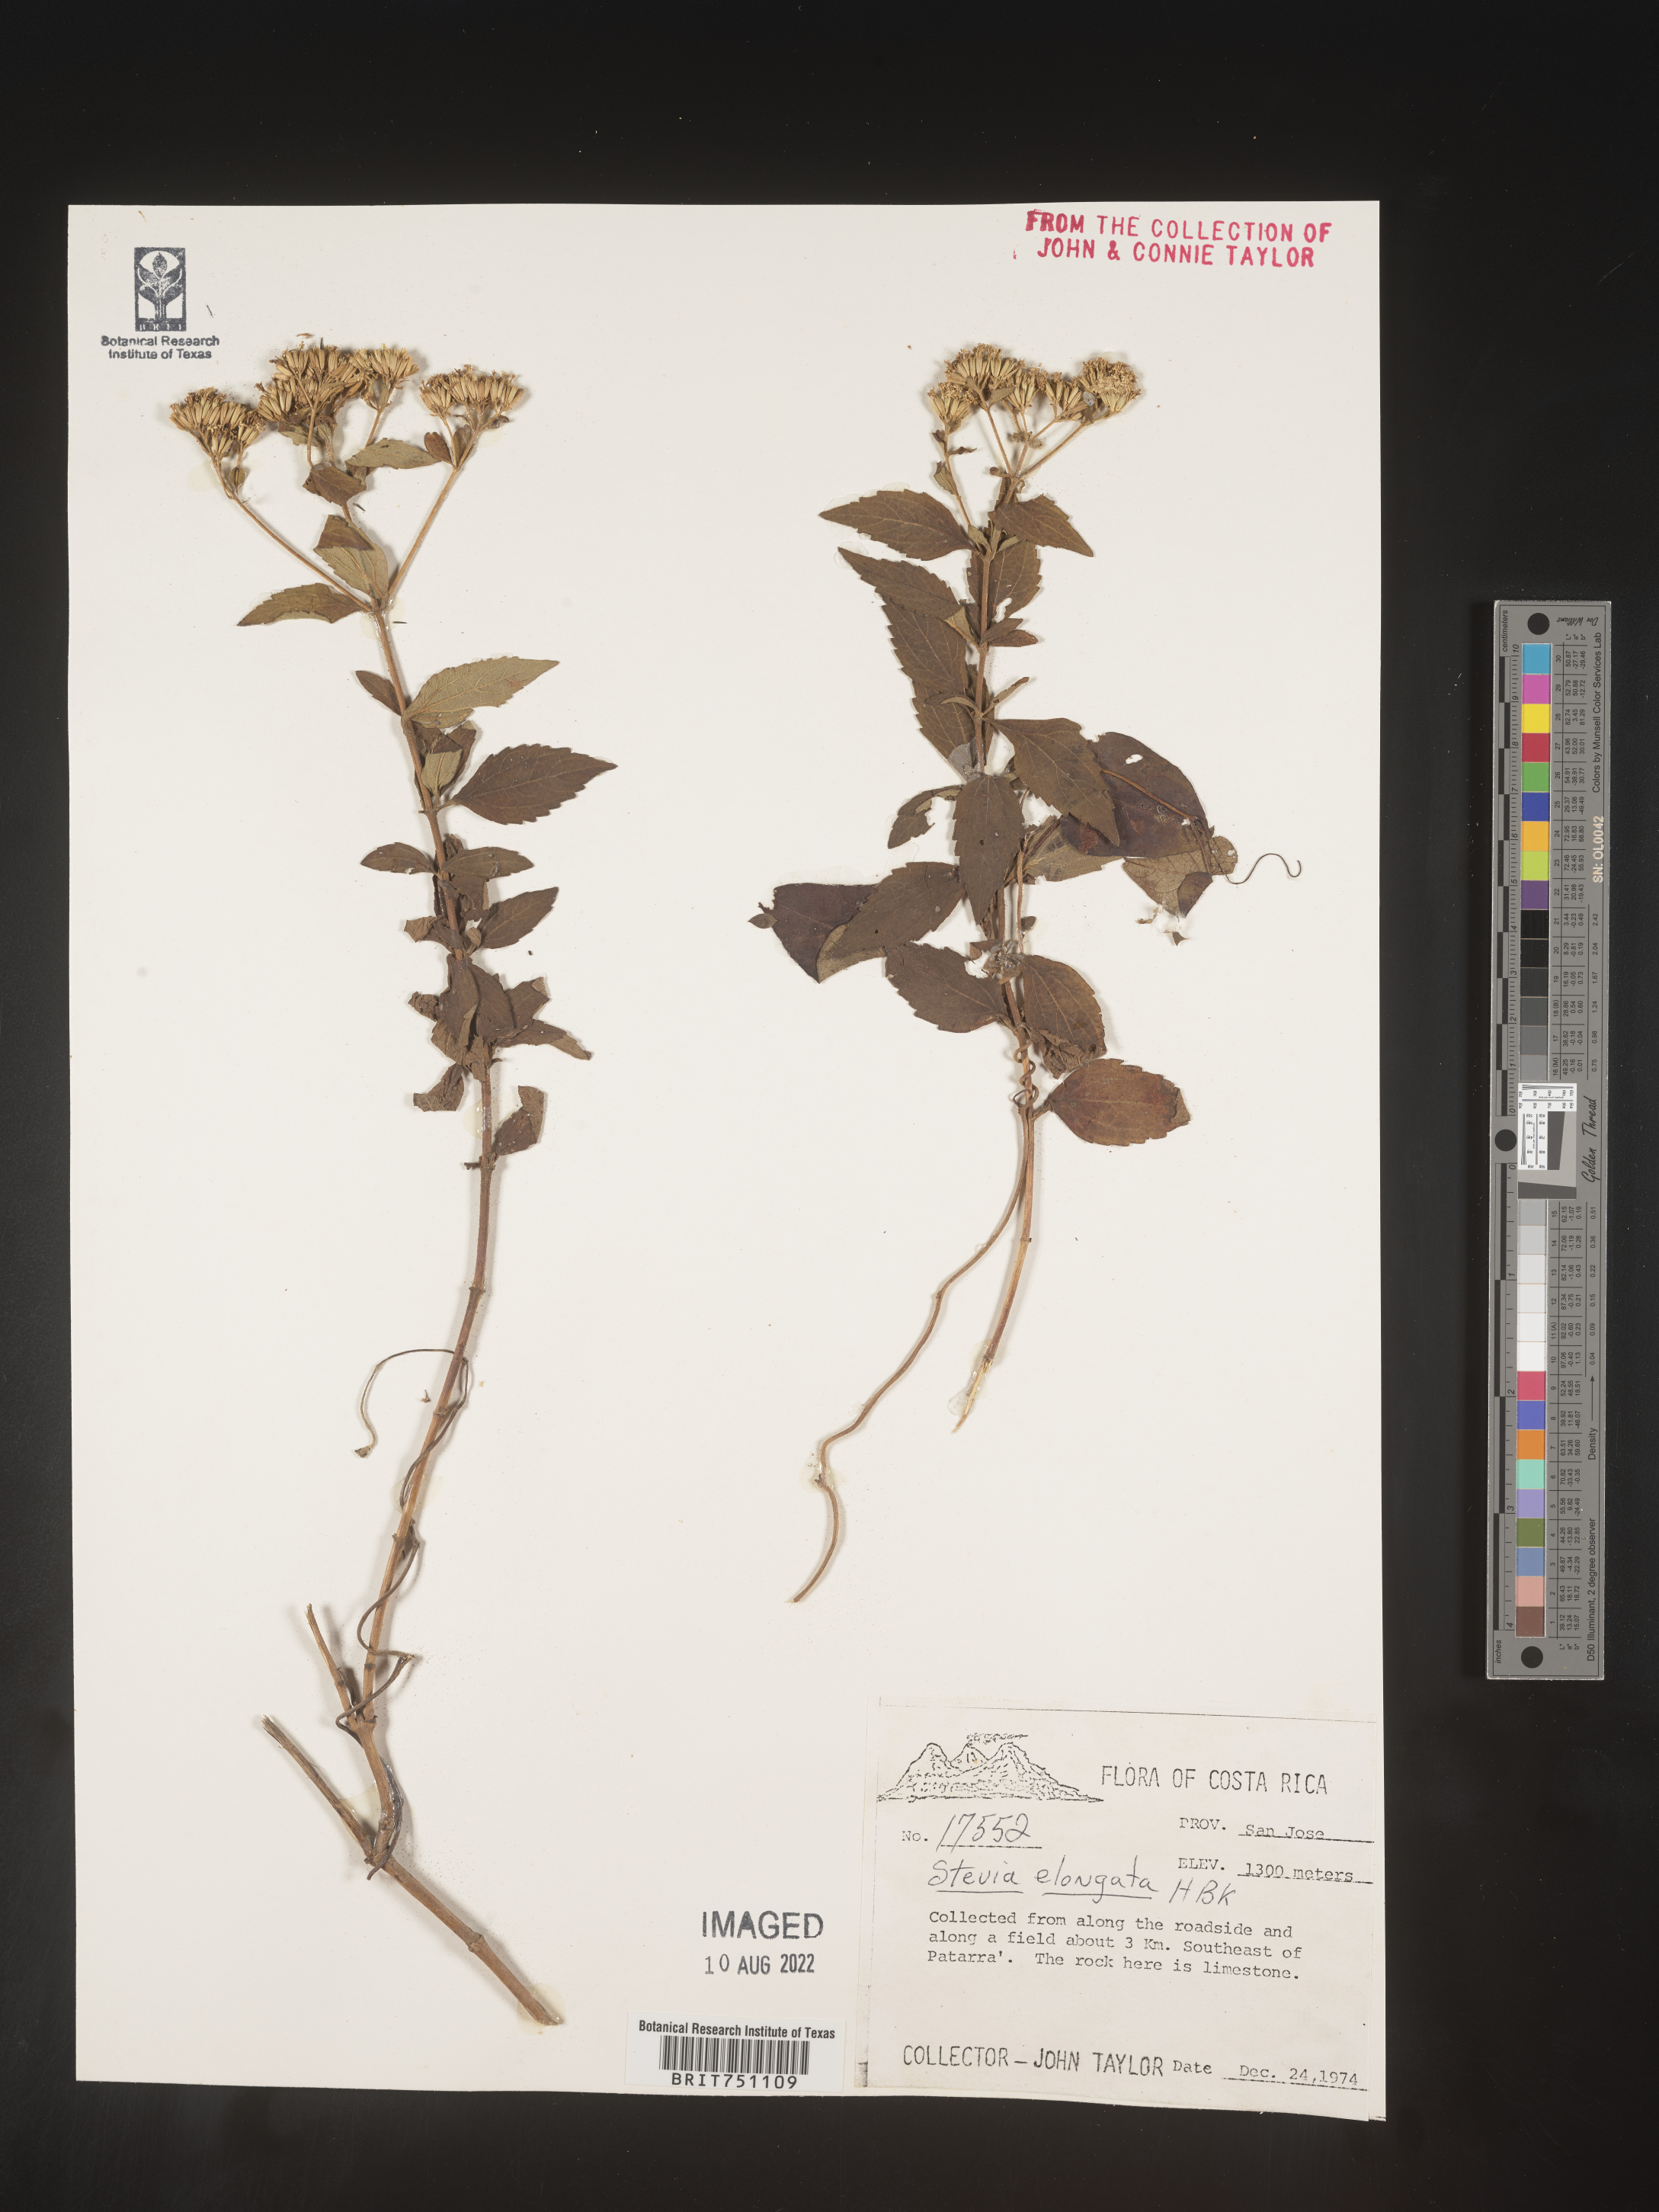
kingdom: Plantae
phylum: Tracheophyta
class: Magnoliopsida
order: Asterales
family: Asteraceae
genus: Stevia
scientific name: Stevia
